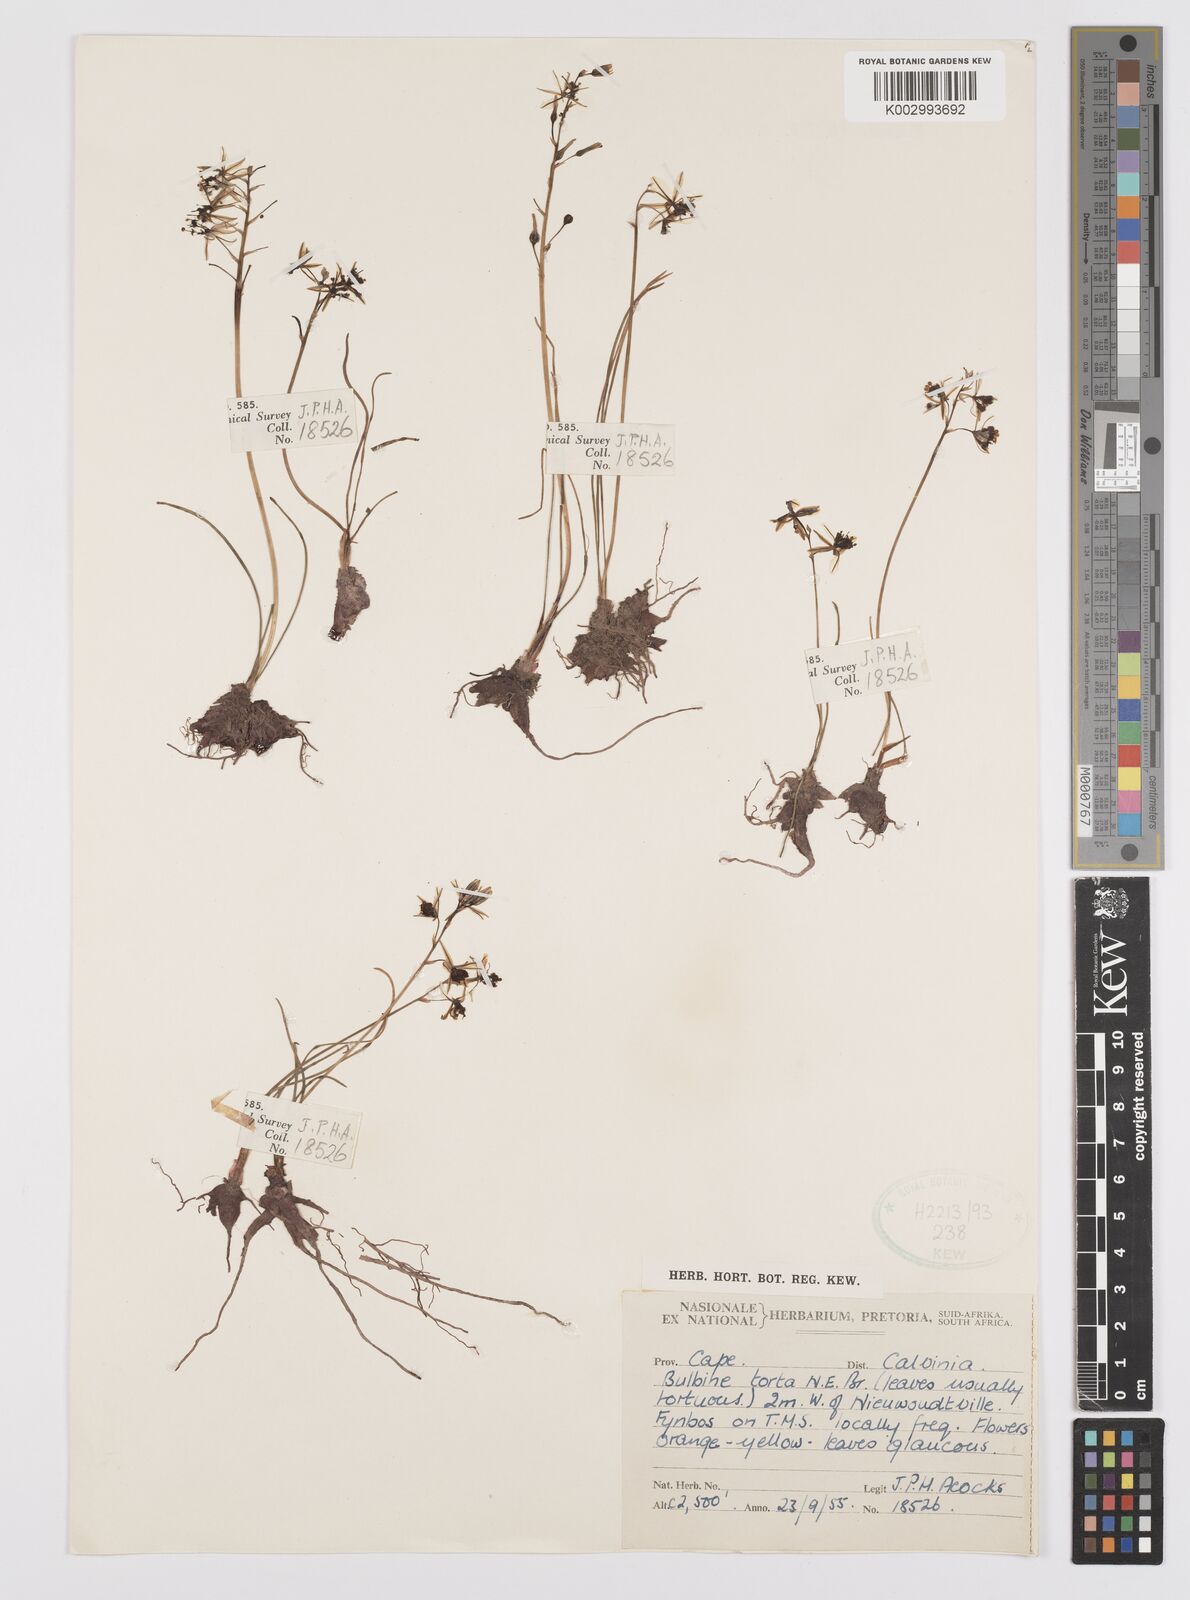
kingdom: Plantae
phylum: Tracheophyta
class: Liliopsida
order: Asparagales
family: Asphodelaceae
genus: Bulbine
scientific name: Bulbine torta
